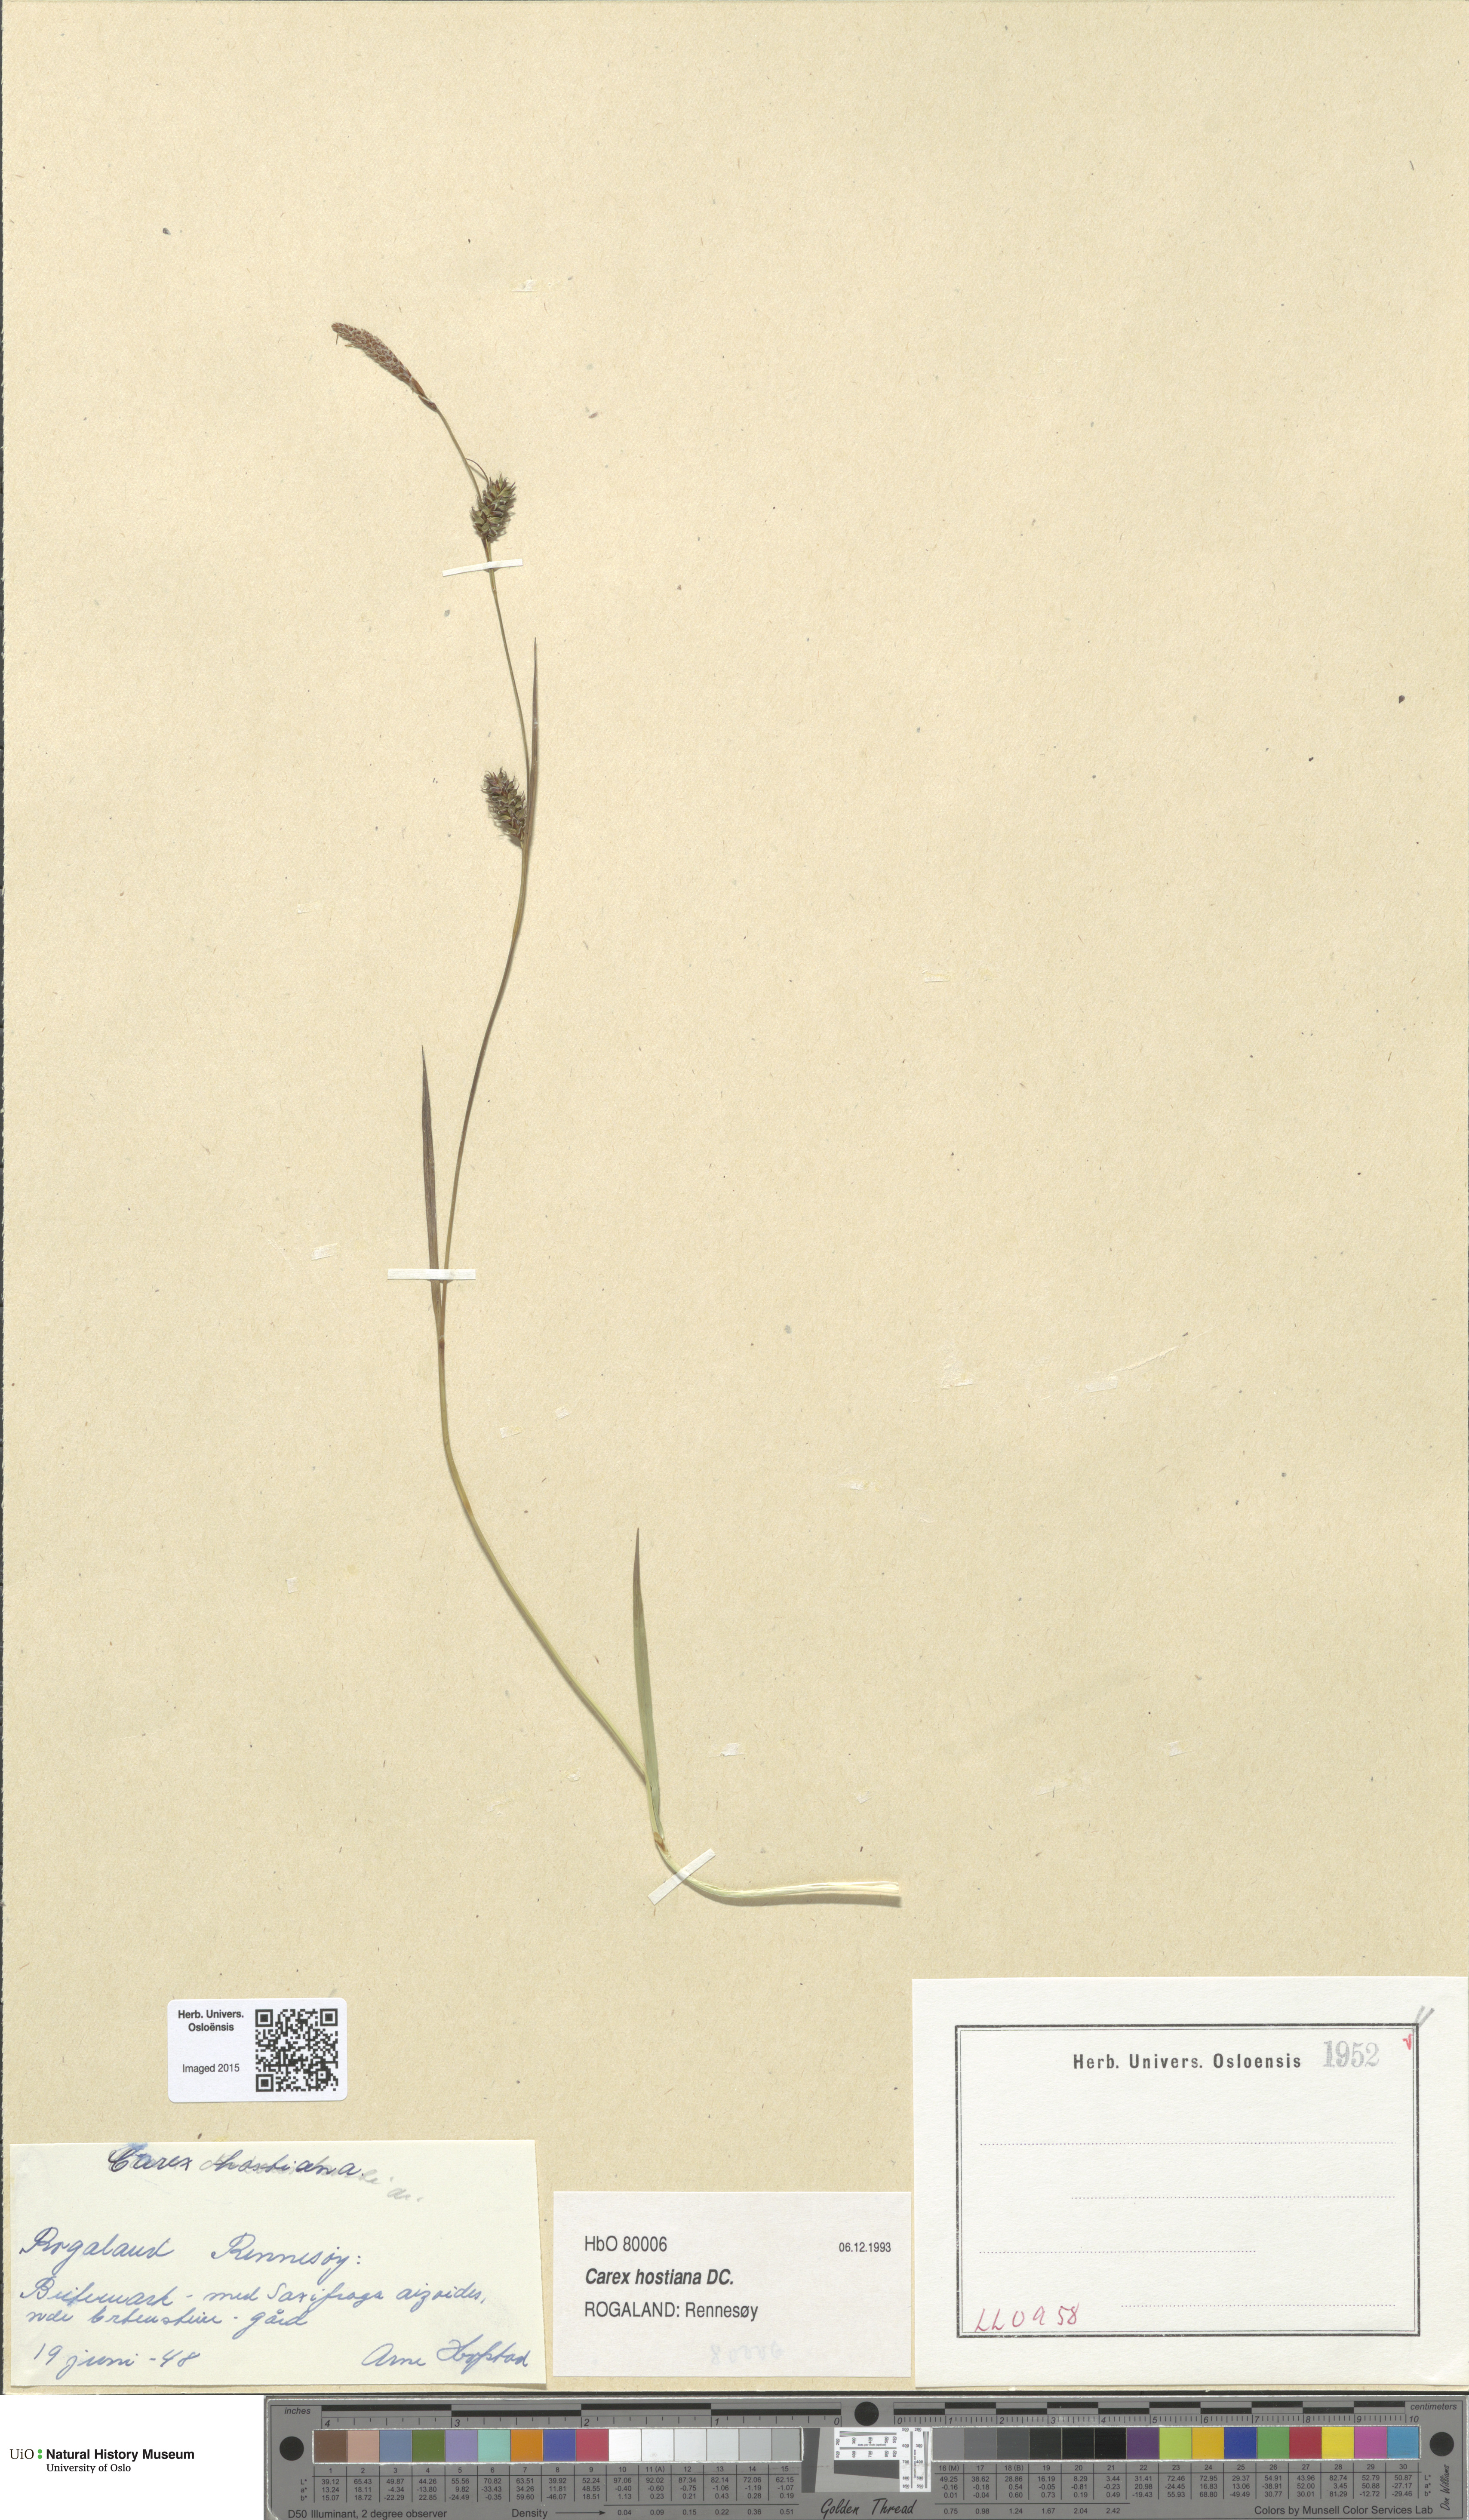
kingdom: Plantae
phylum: Tracheophyta
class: Liliopsida
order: Poales
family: Cyperaceae
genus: Carex
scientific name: Carex hostiana
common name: Tawny sedge
